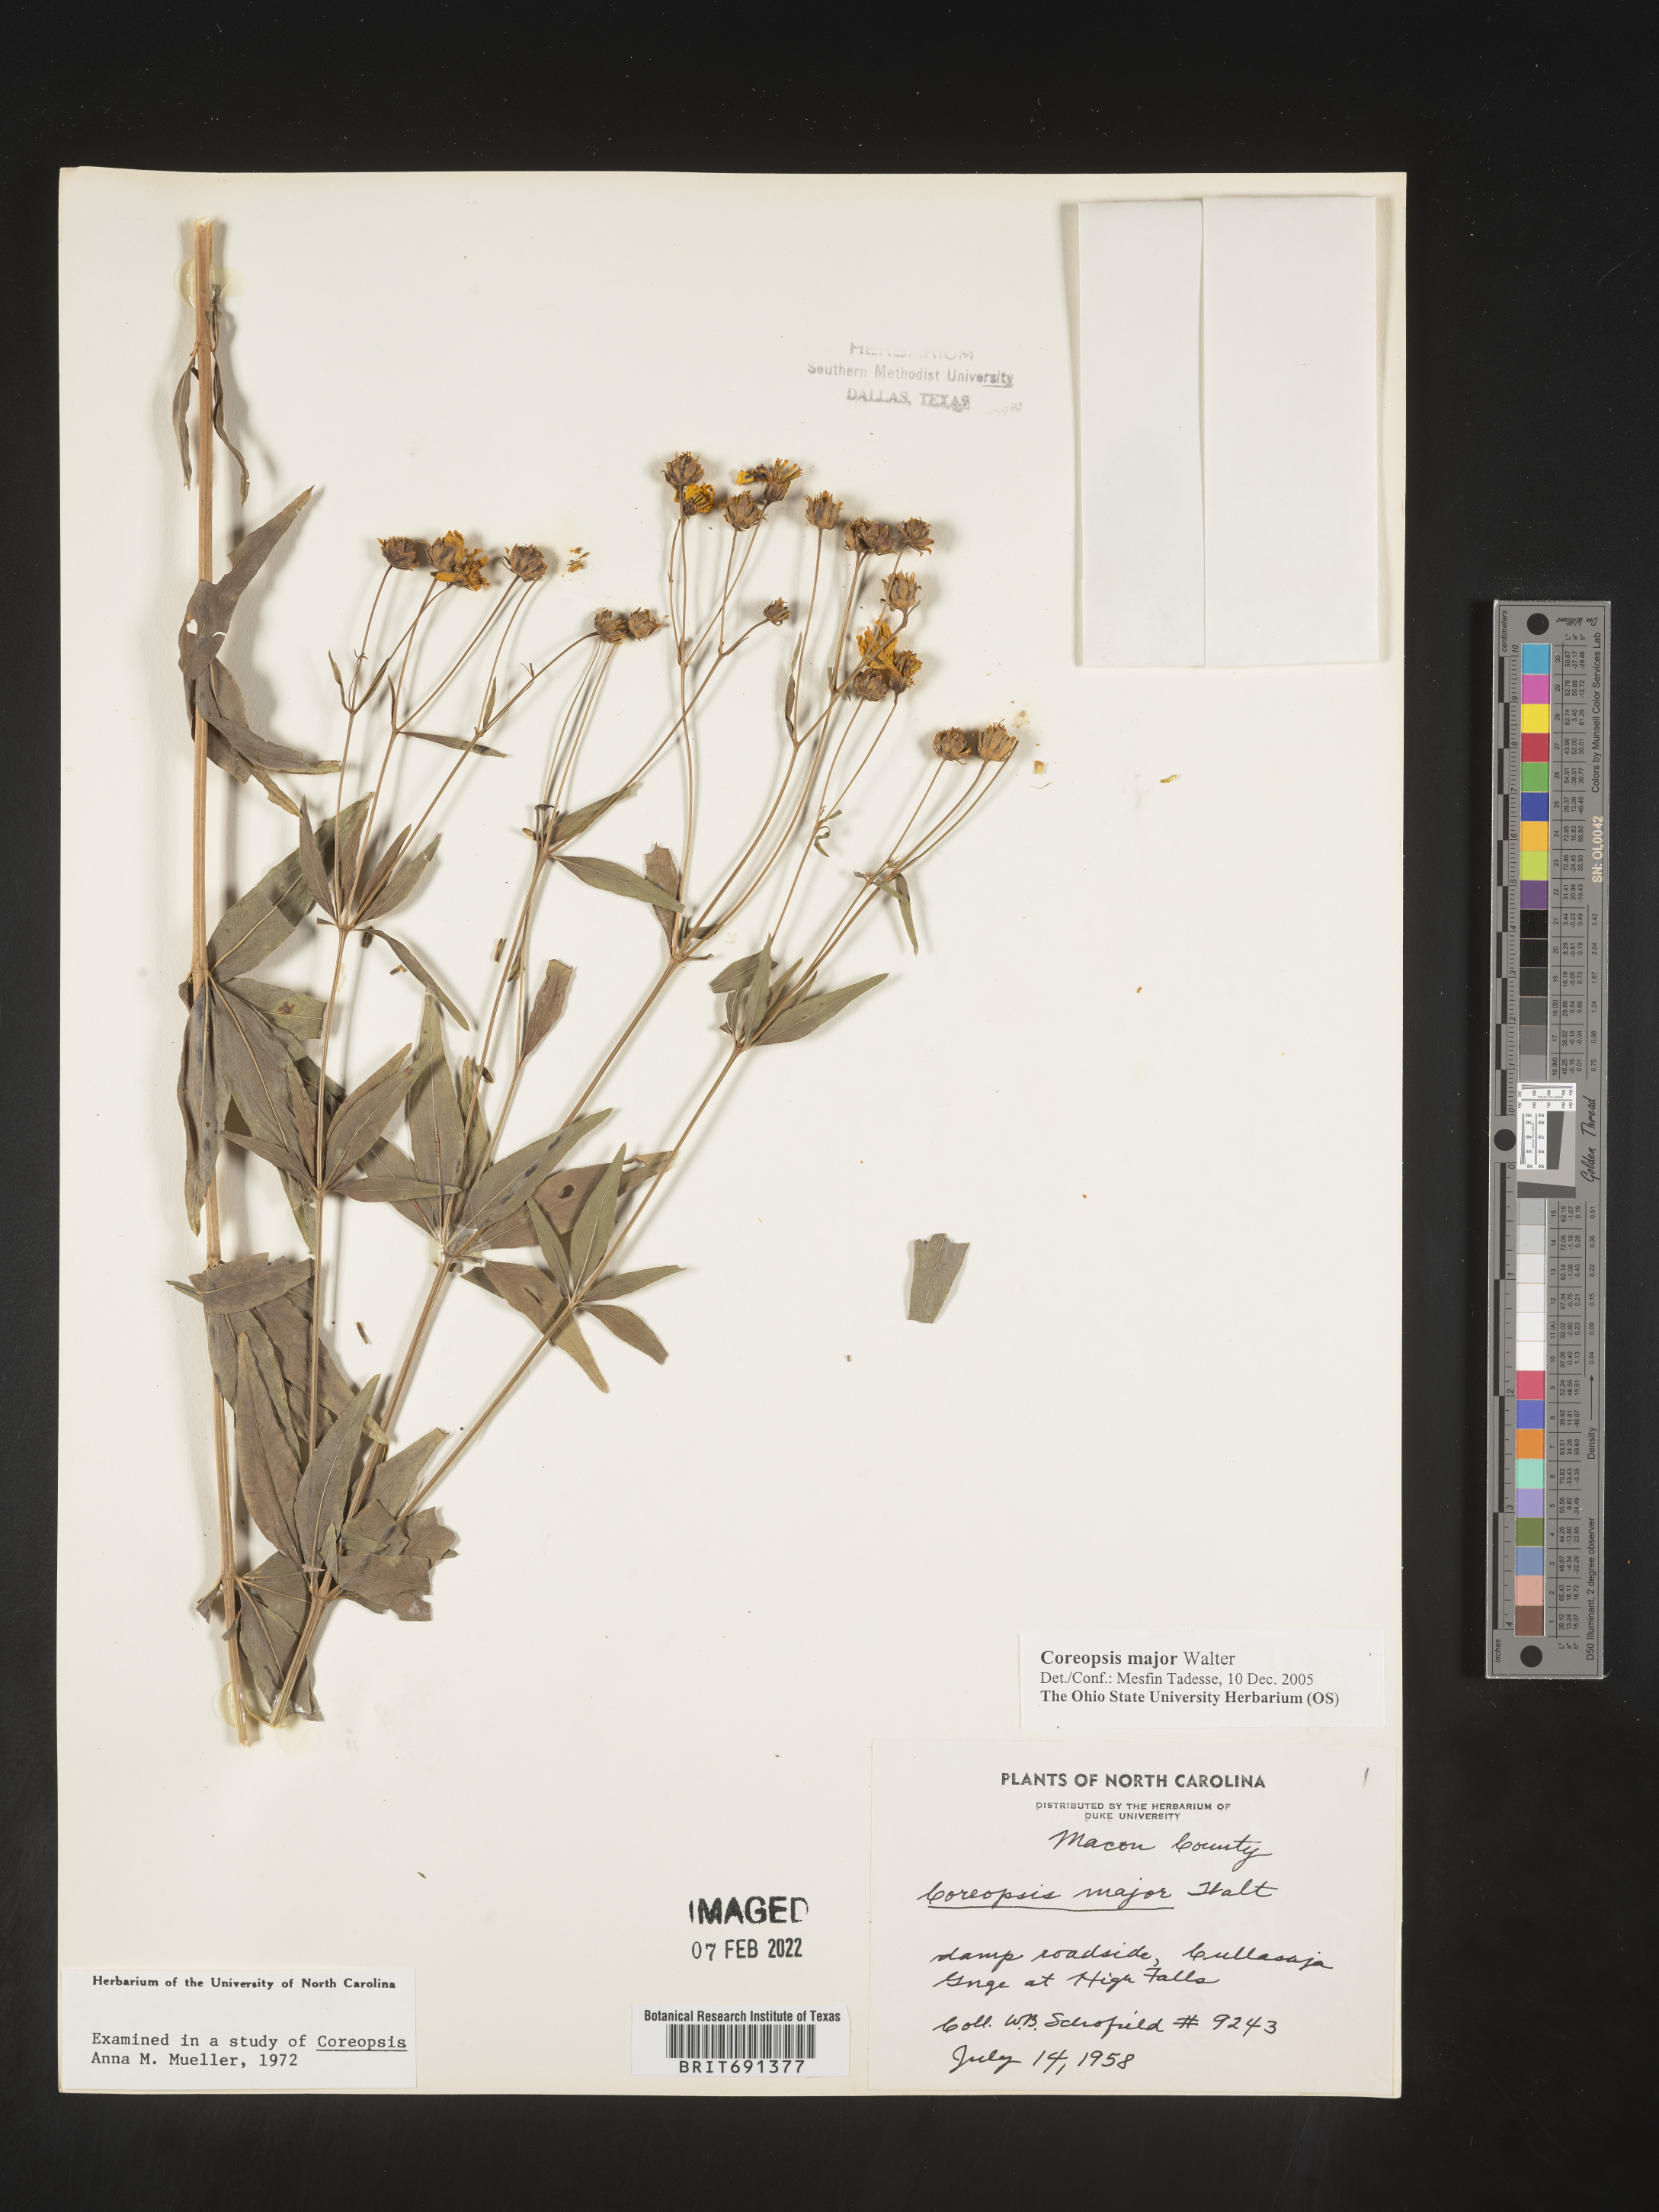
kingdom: Plantae
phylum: Tracheophyta
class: Magnoliopsida
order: Asterales
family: Asteraceae
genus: Coreopsis
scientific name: Coreopsis major
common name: Forest tickseed
